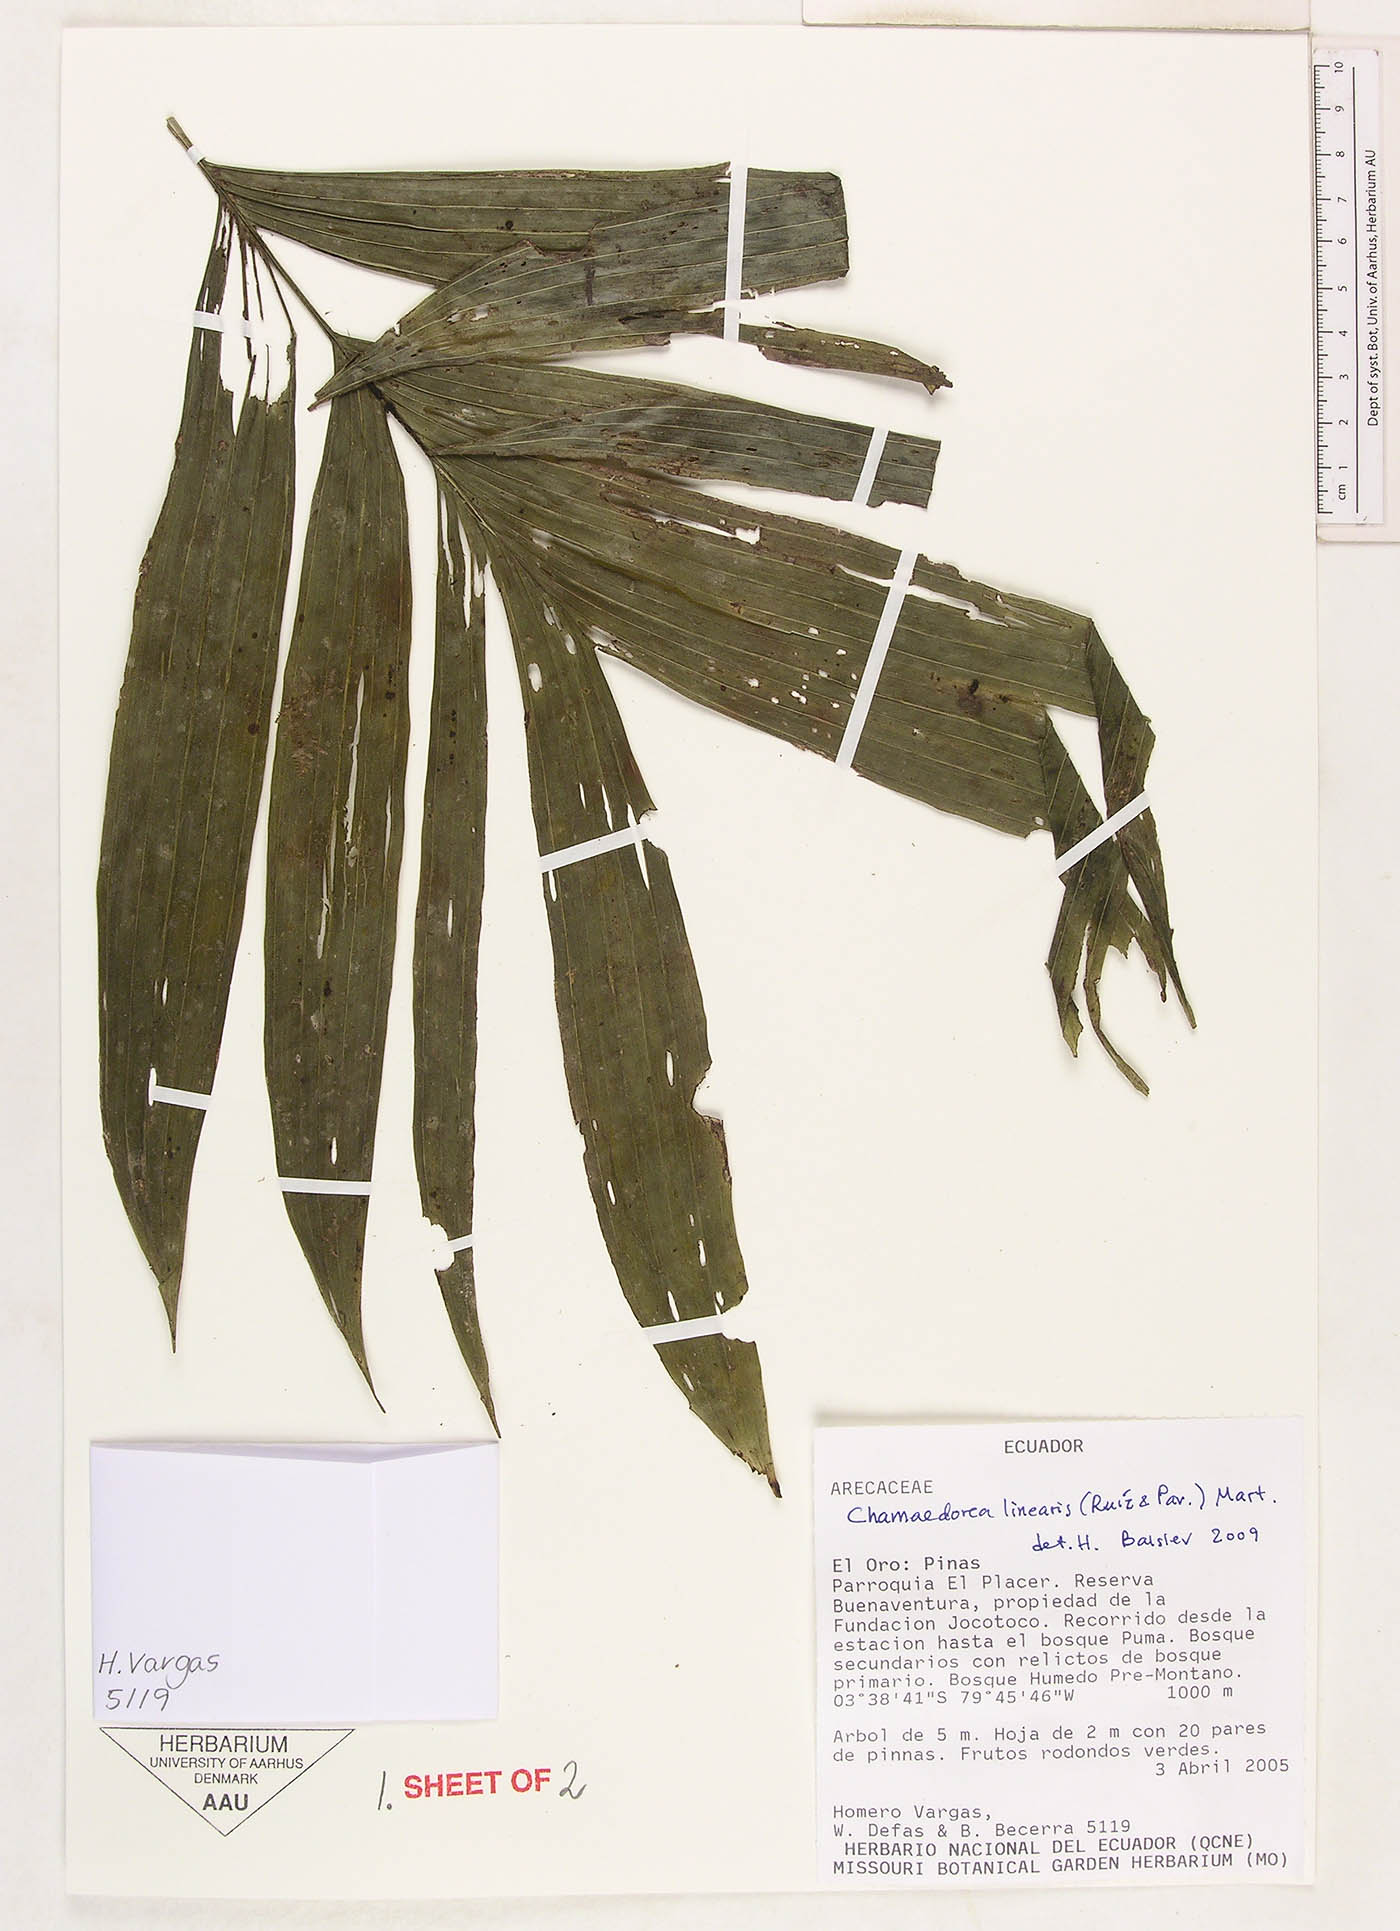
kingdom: Plantae
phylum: Tracheophyta
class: Liliopsida
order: Arecales
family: Arecaceae
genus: Chamaedorea
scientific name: Chamaedorea linearis
